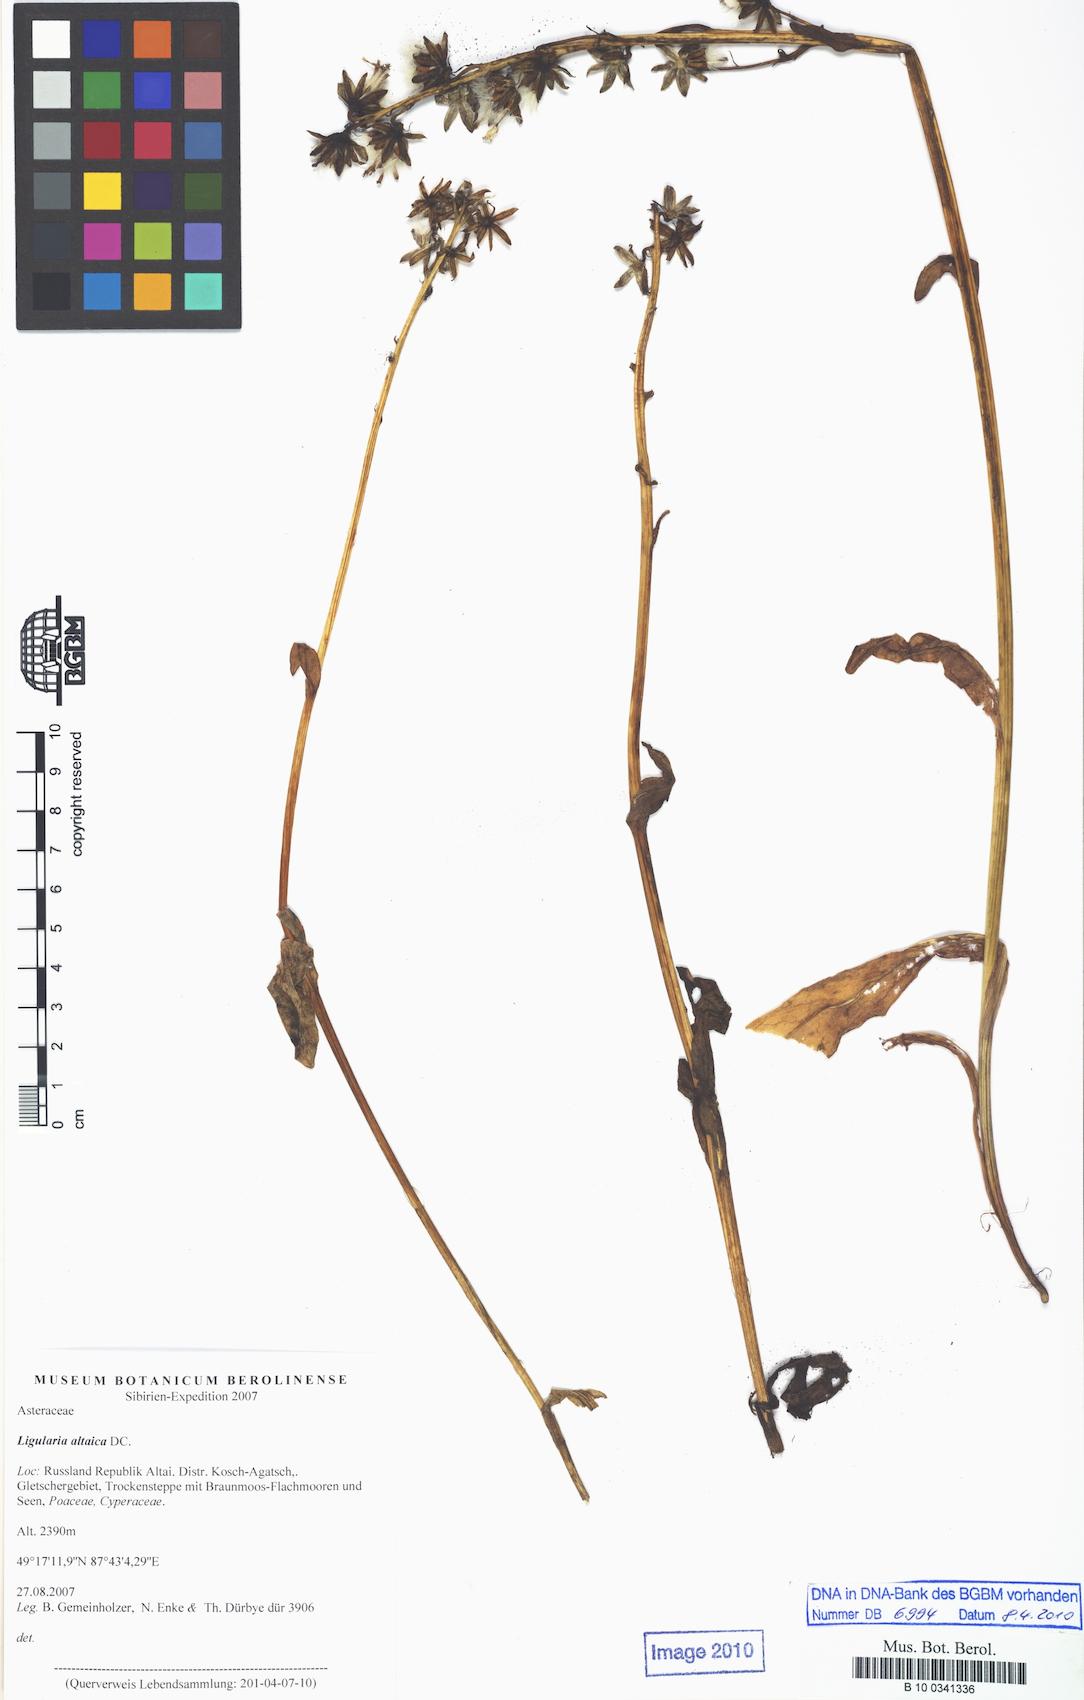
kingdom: Plantae
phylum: Tracheophyta
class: Magnoliopsida
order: Asterales
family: Asteraceae
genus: Ligularia
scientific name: Ligularia altaica
